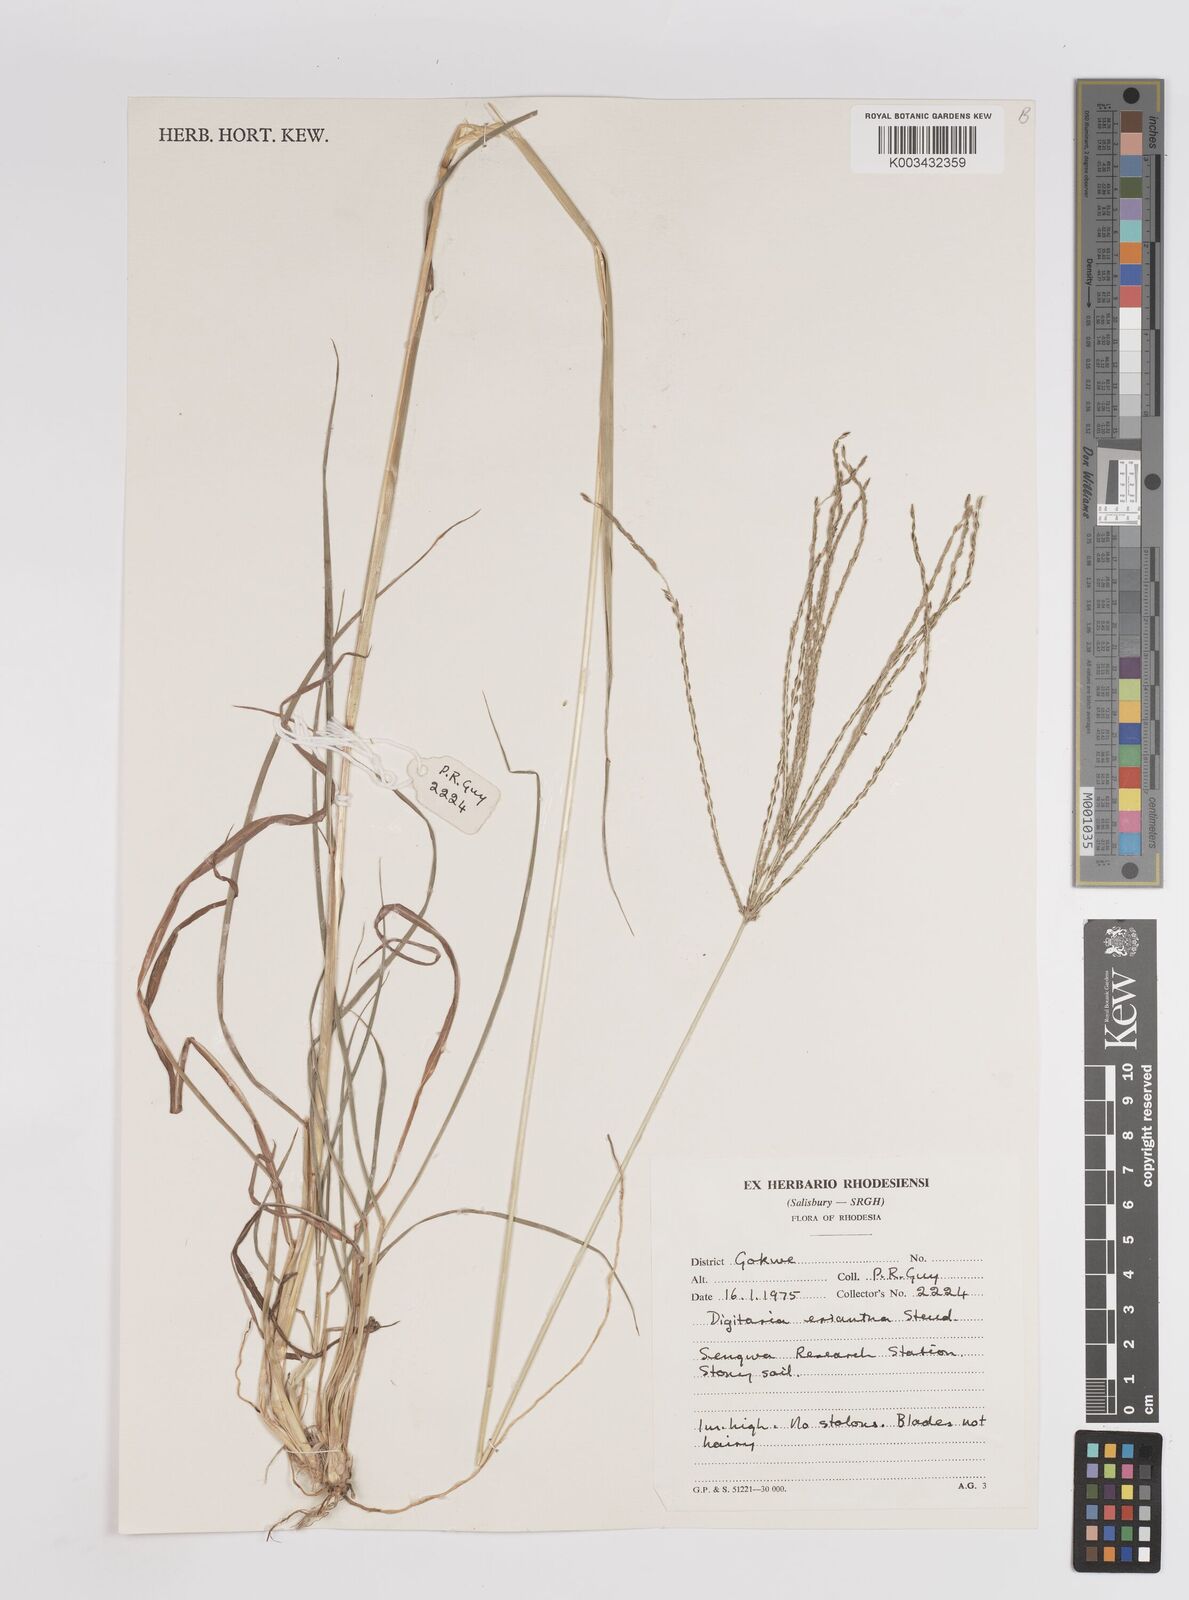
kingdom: Plantae
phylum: Tracheophyta
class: Liliopsida
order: Poales
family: Poaceae
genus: Digitaria
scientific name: Digitaria eriantha
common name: Digitgrass
